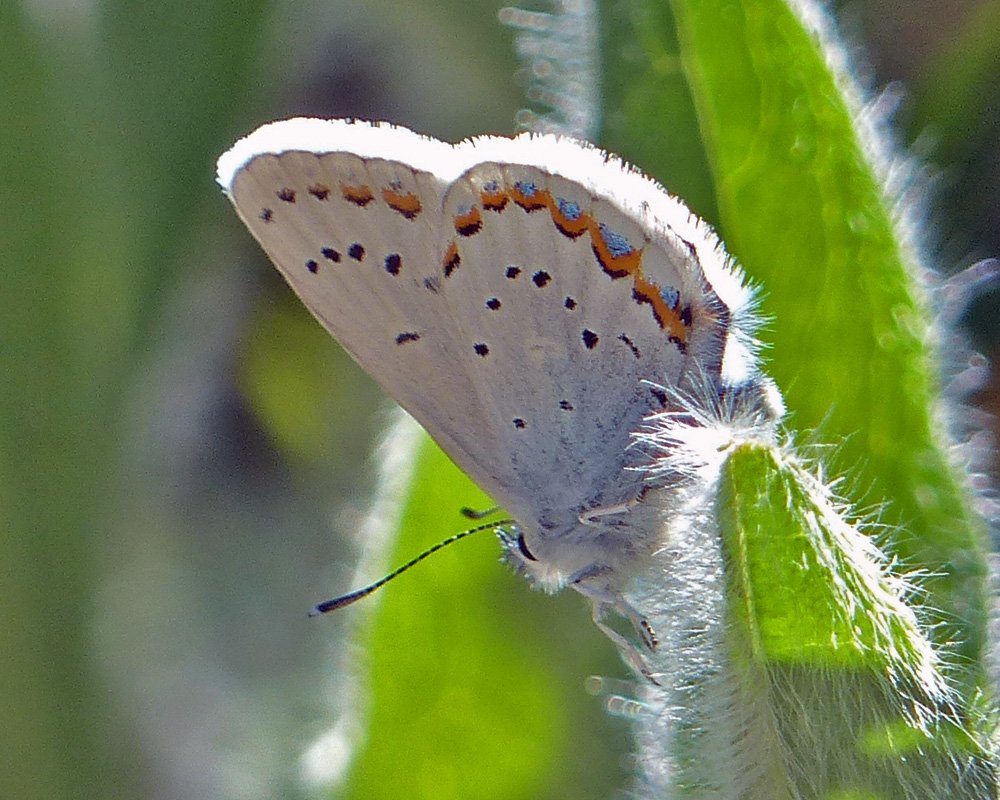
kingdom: Animalia
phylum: Arthropoda
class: Insecta
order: Lepidoptera
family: Lycaenidae
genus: Lycaeides
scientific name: Lycaeides idas
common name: Northern Blue
